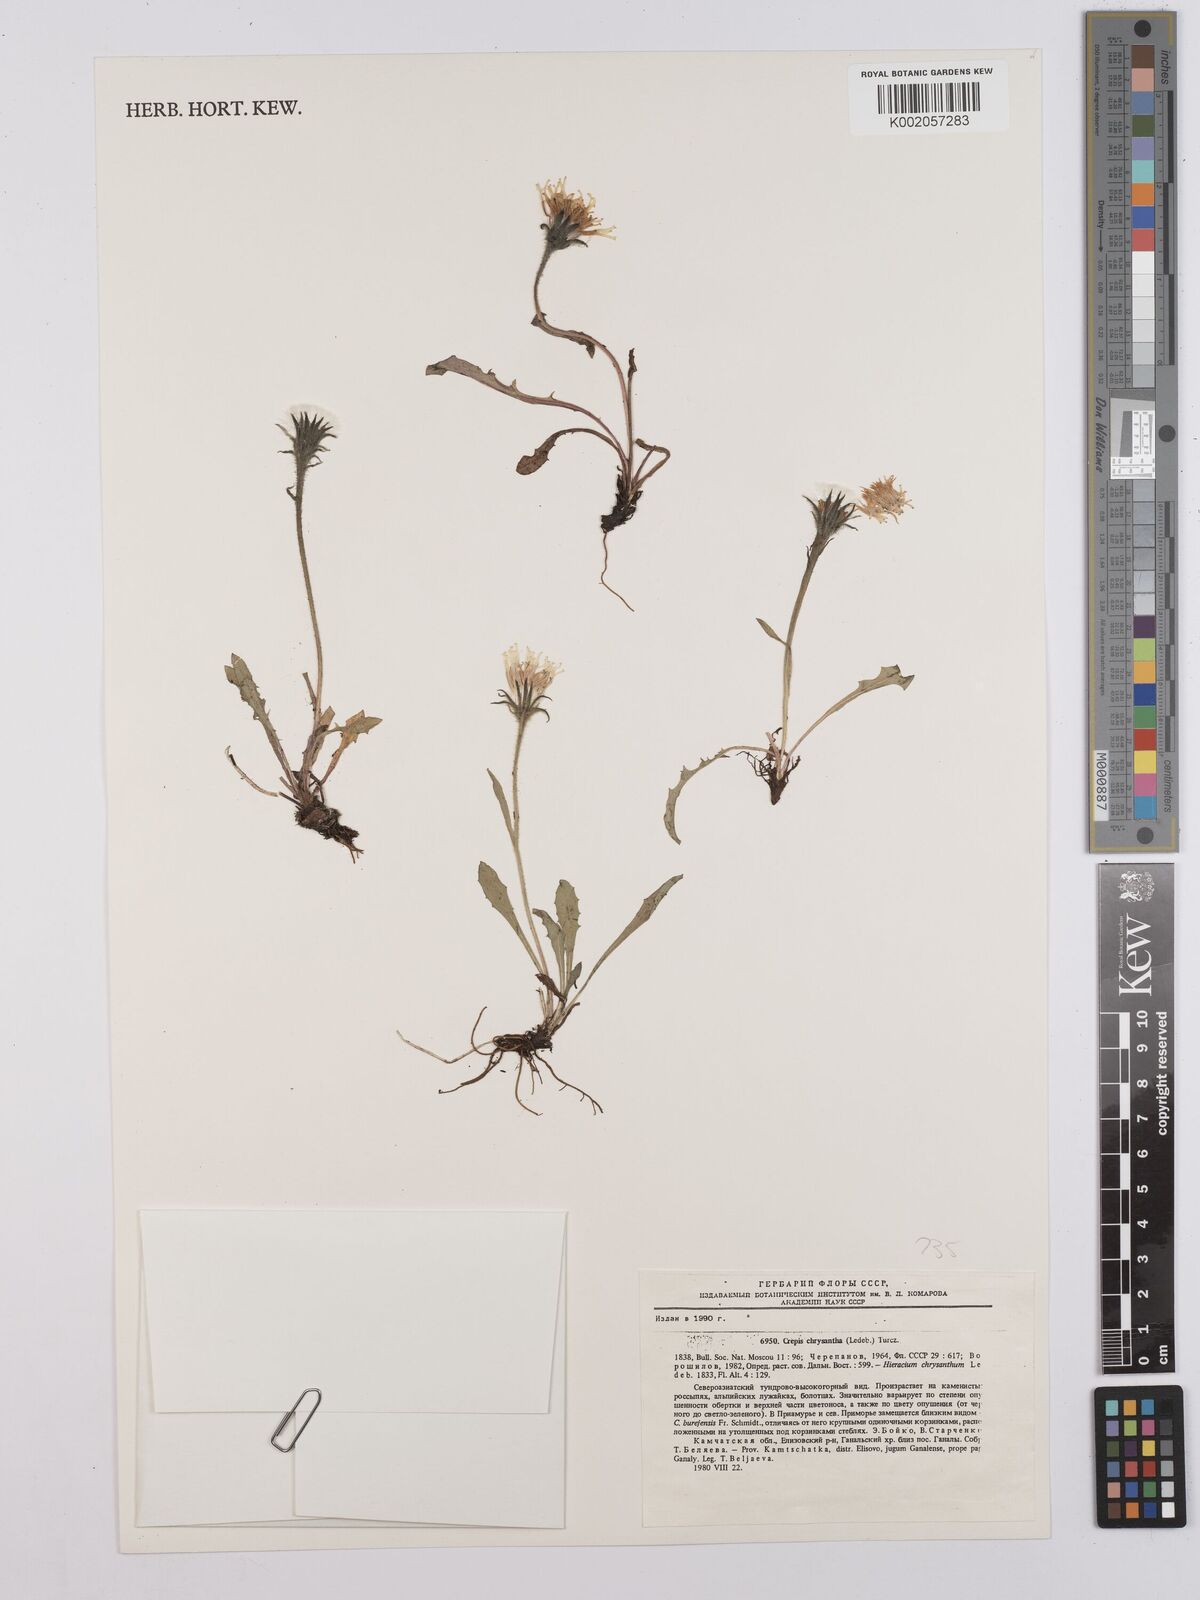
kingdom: Plantae
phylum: Tracheophyta
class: Magnoliopsida
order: Asterales
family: Asteraceae
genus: Crepis
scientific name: Crepis chrysantha
